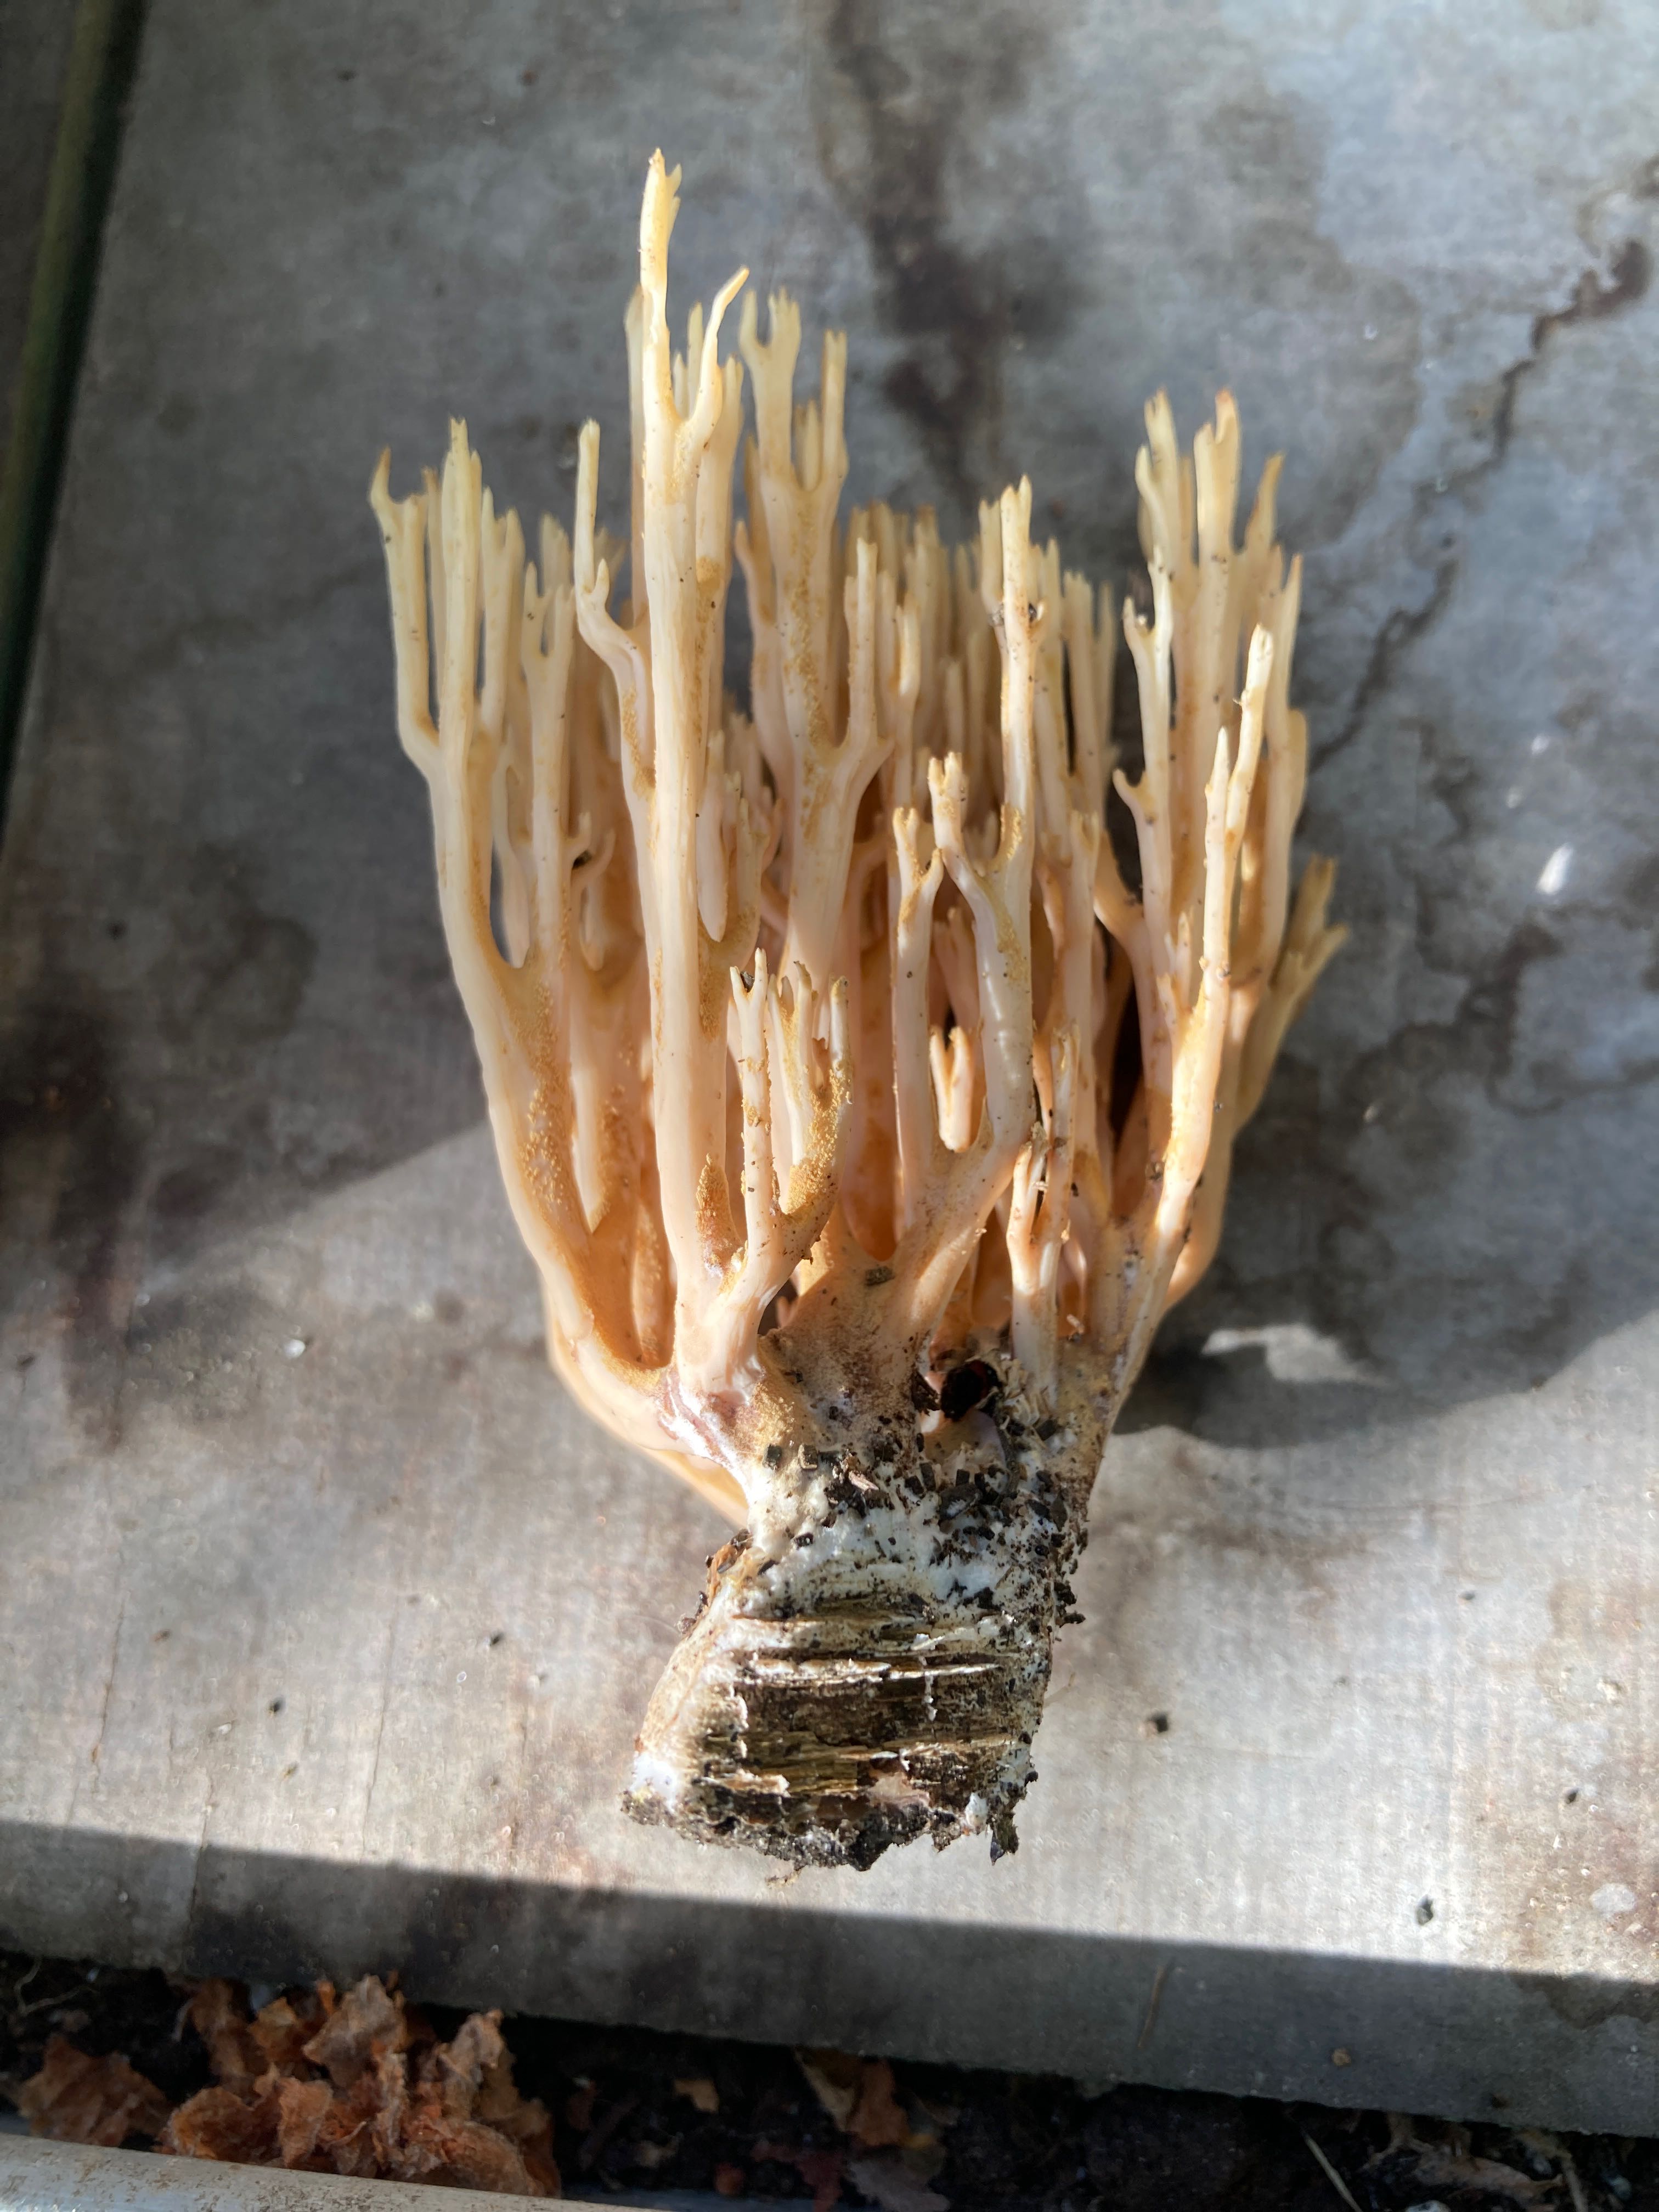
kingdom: Fungi
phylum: Basidiomycota
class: Agaricomycetes
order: Gomphales
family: Gomphaceae
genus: Ramaria
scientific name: Ramaria stricta
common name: rank koralsvamp
